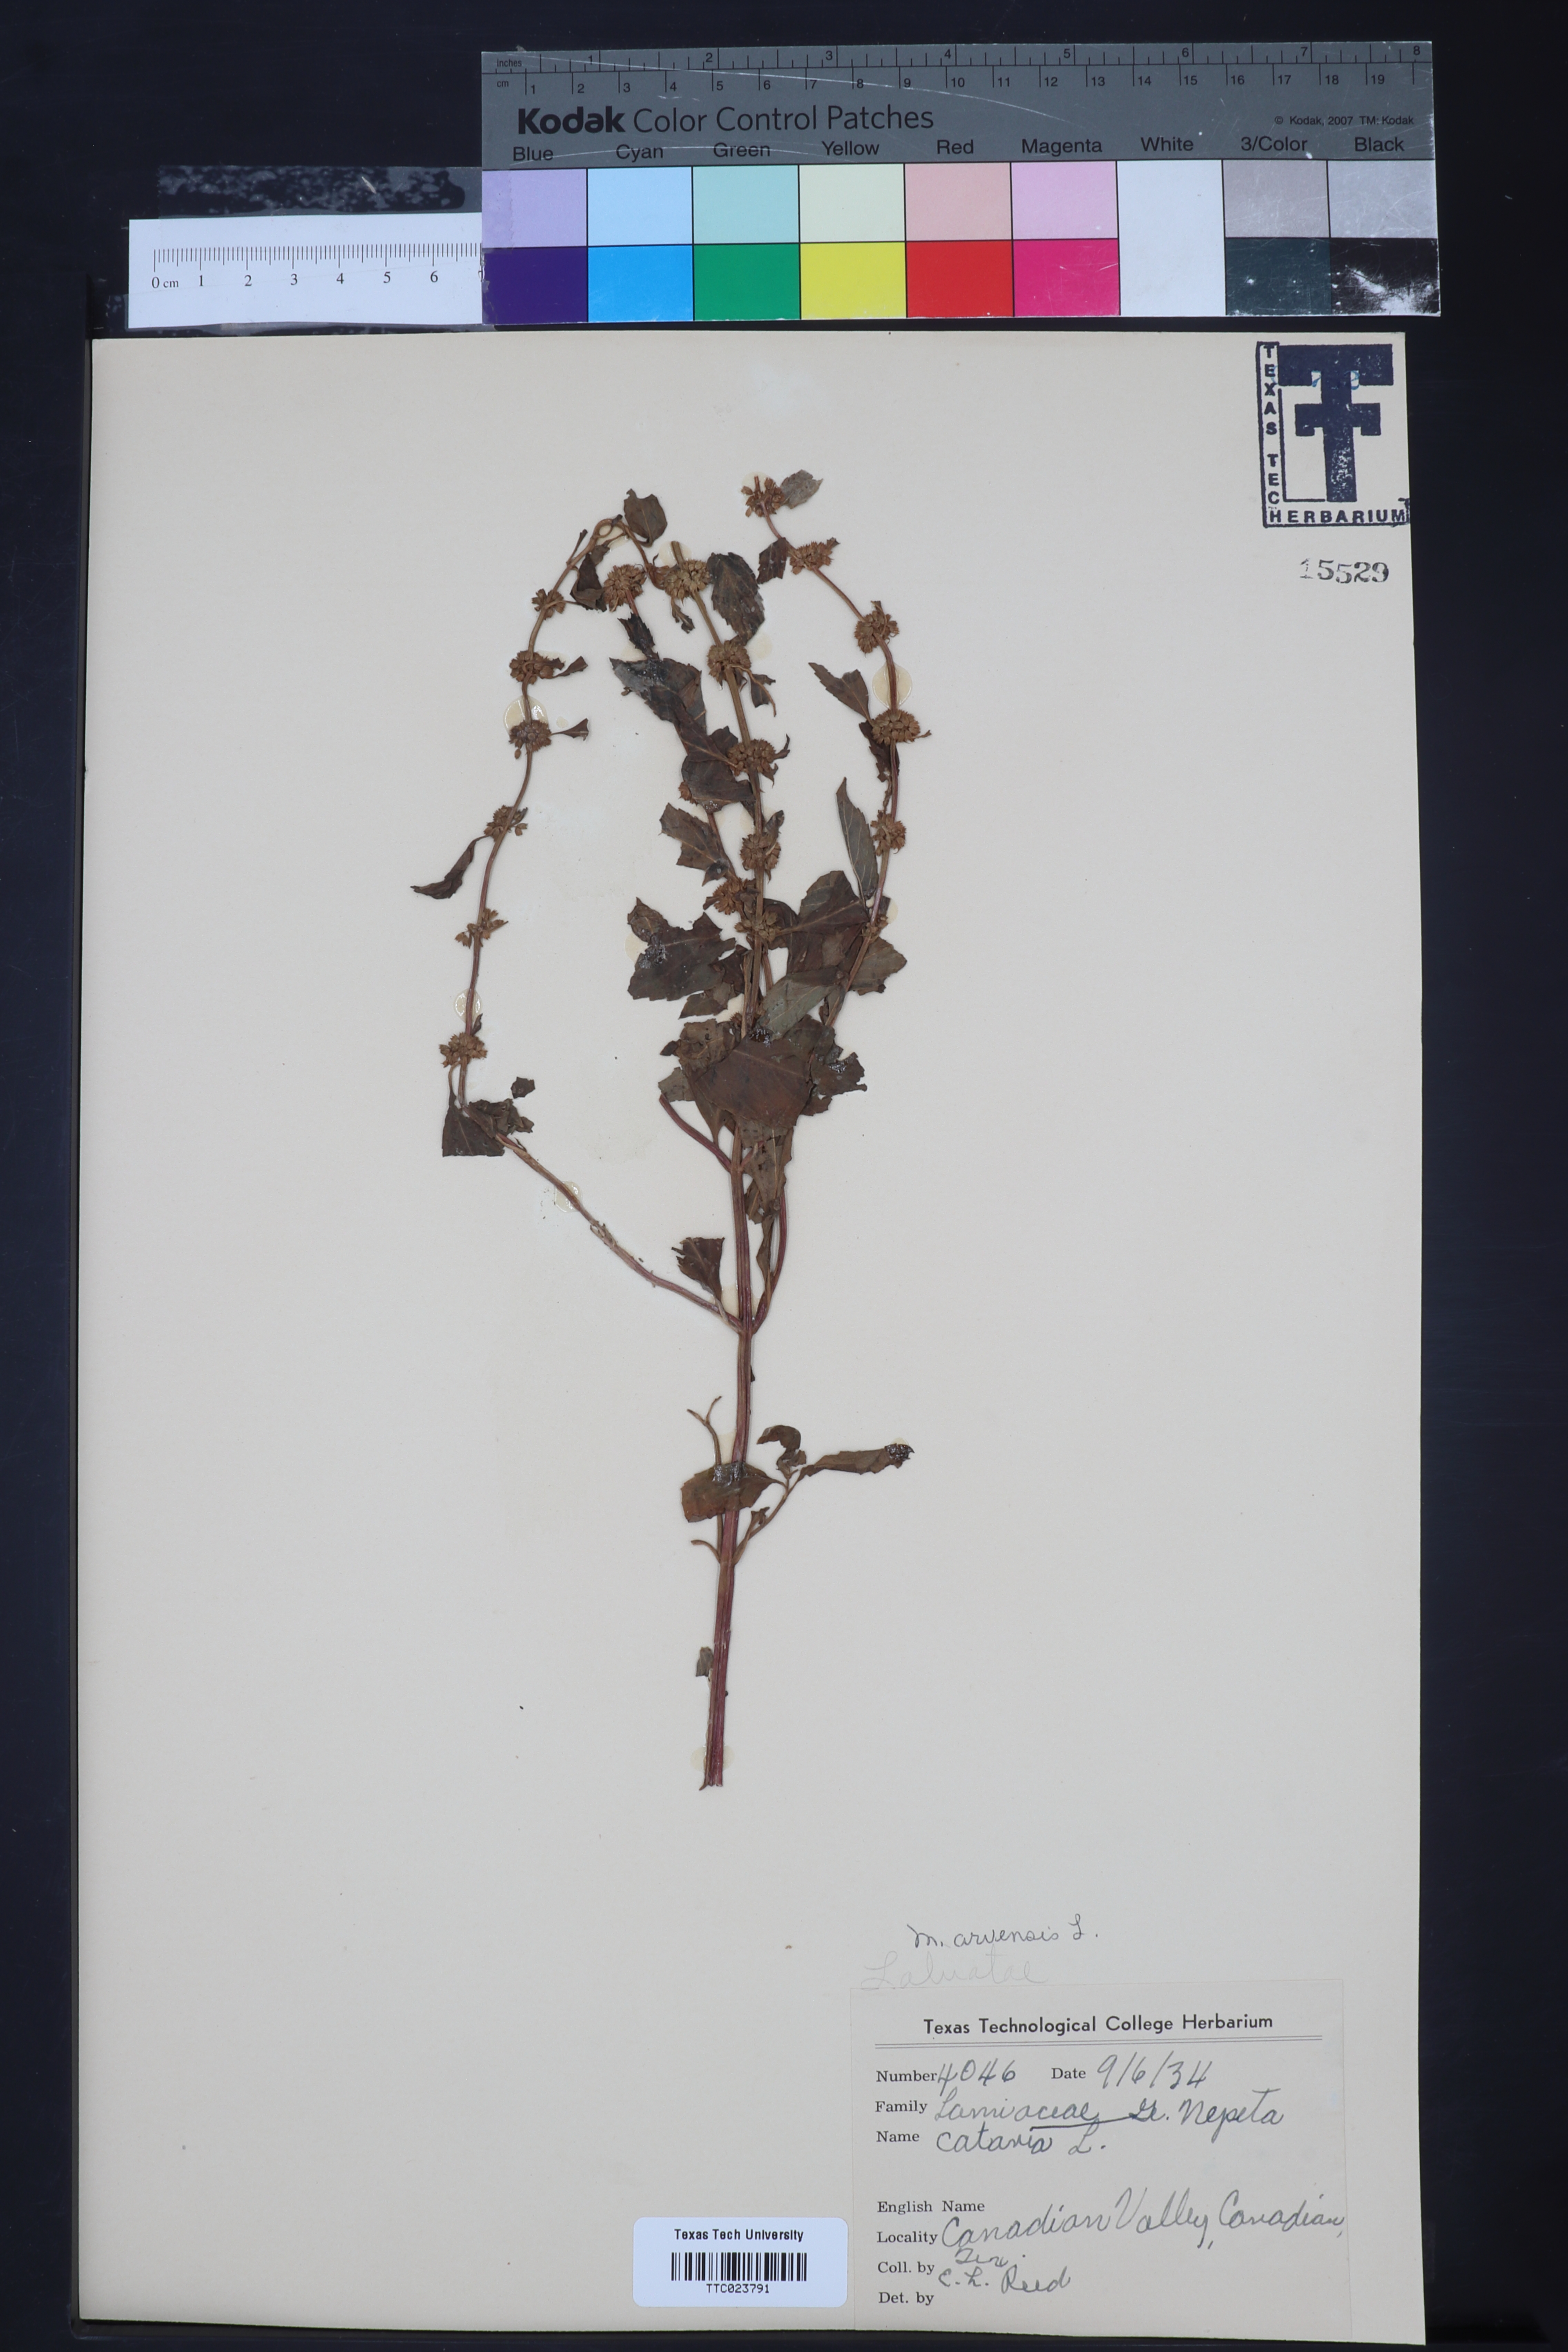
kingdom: Plantae
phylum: Tracheophyta
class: Magnoliopsida
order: Lamiales
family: Lamiaceae
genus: Mentha
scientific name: Mentha arvensis
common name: Corn mint
